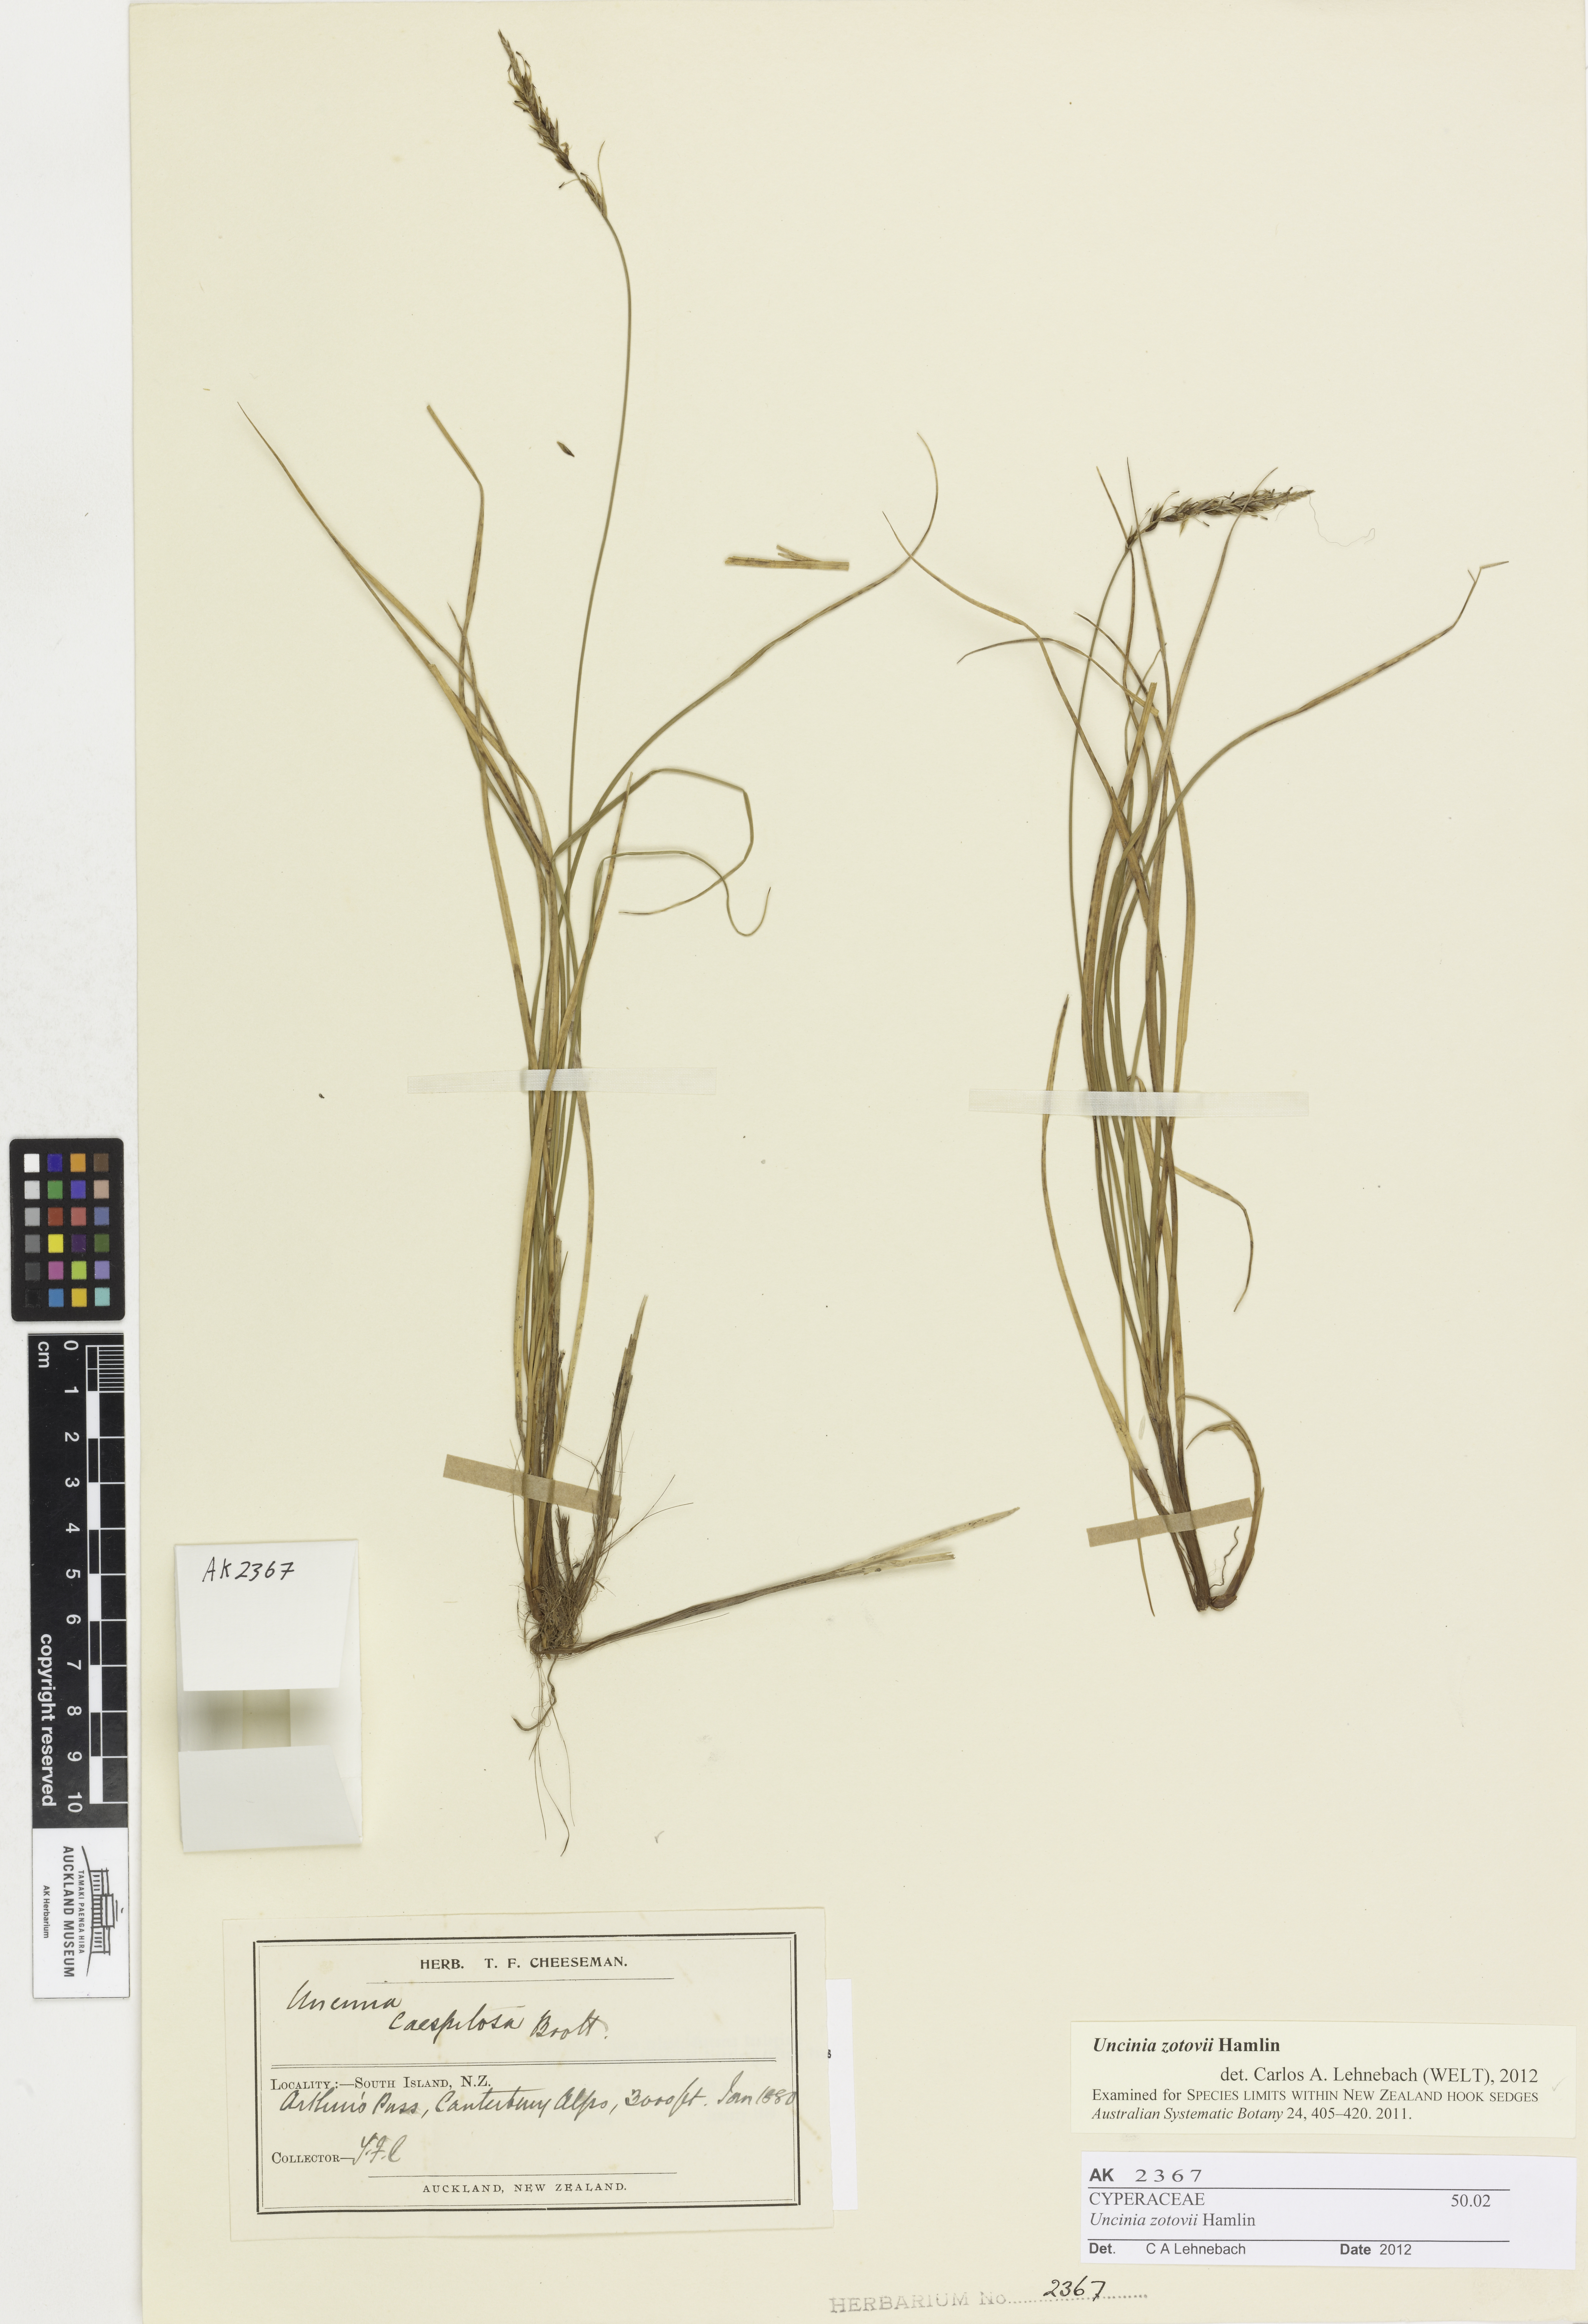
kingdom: Plantae
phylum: Tracheophyta
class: Liliopsida
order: Poales
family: Cyperaceae
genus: Carex
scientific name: Carex zotovii
